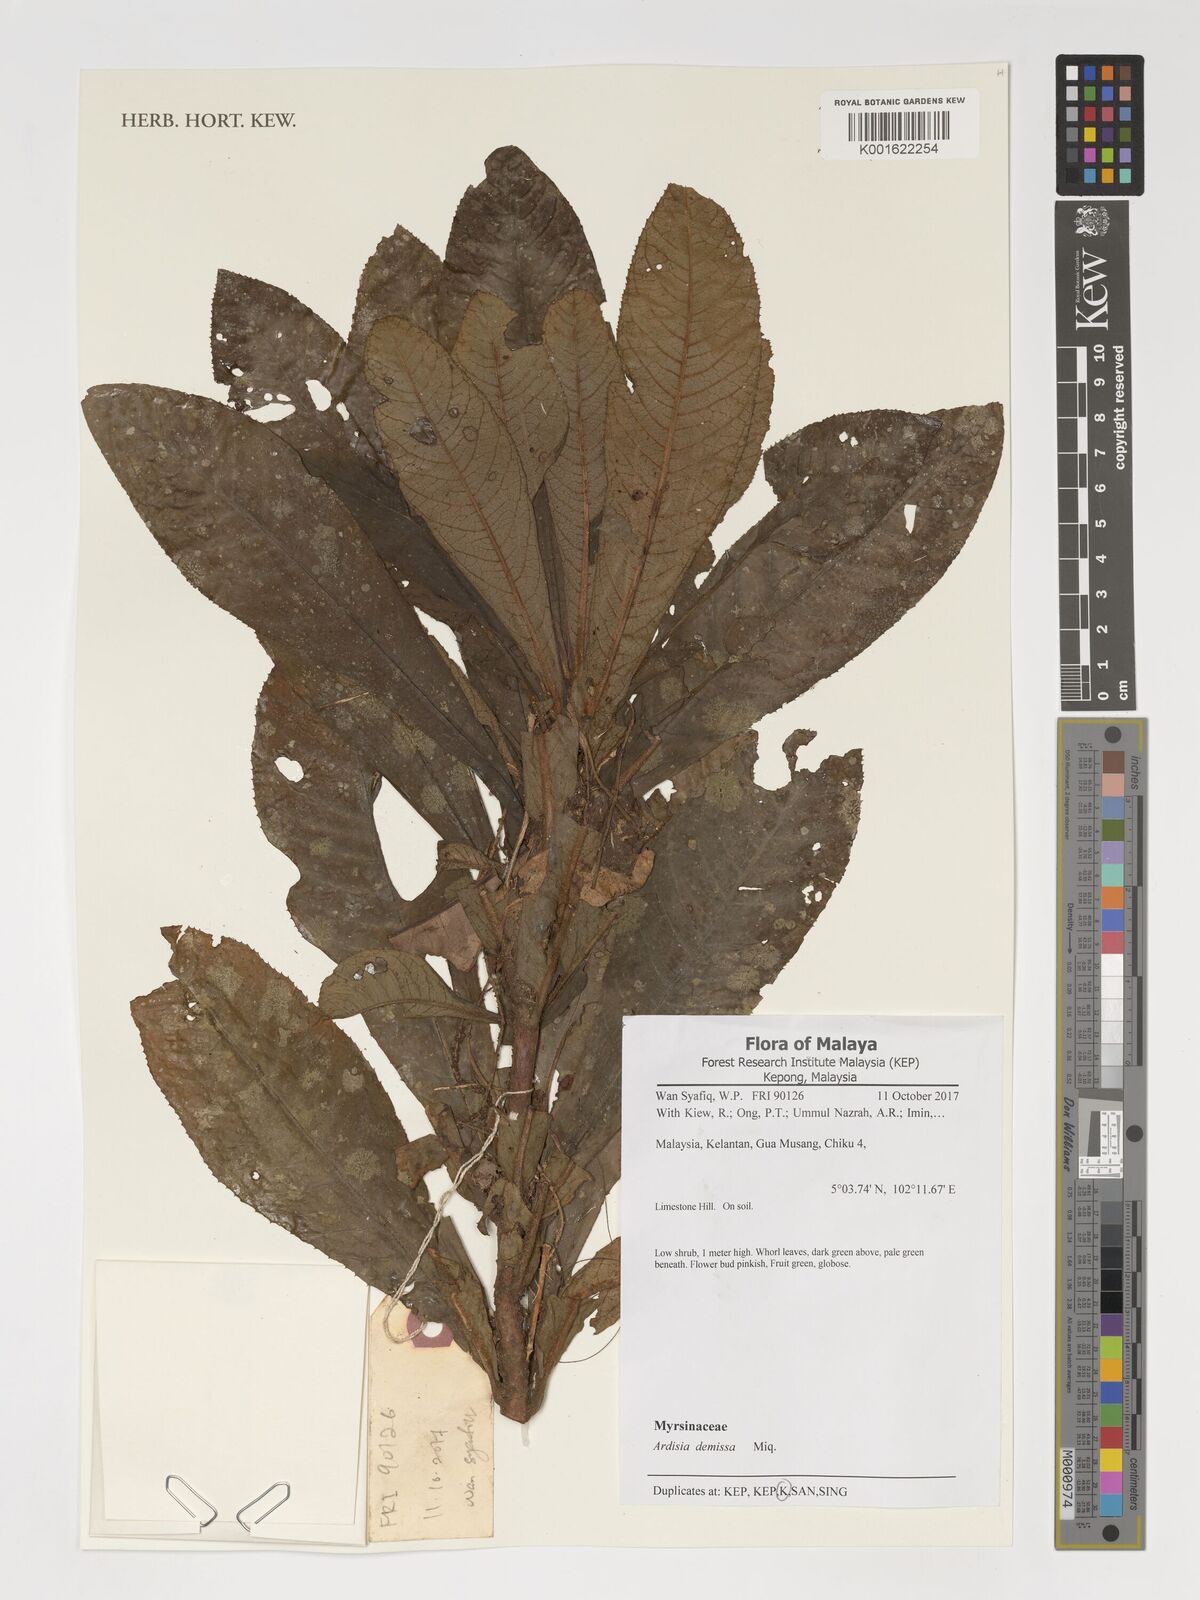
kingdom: Plantae
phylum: Tracheophyta
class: Magnoliopsida
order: Ericales
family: Primulaceae
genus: Ardisia
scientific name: Ardisia demissa
